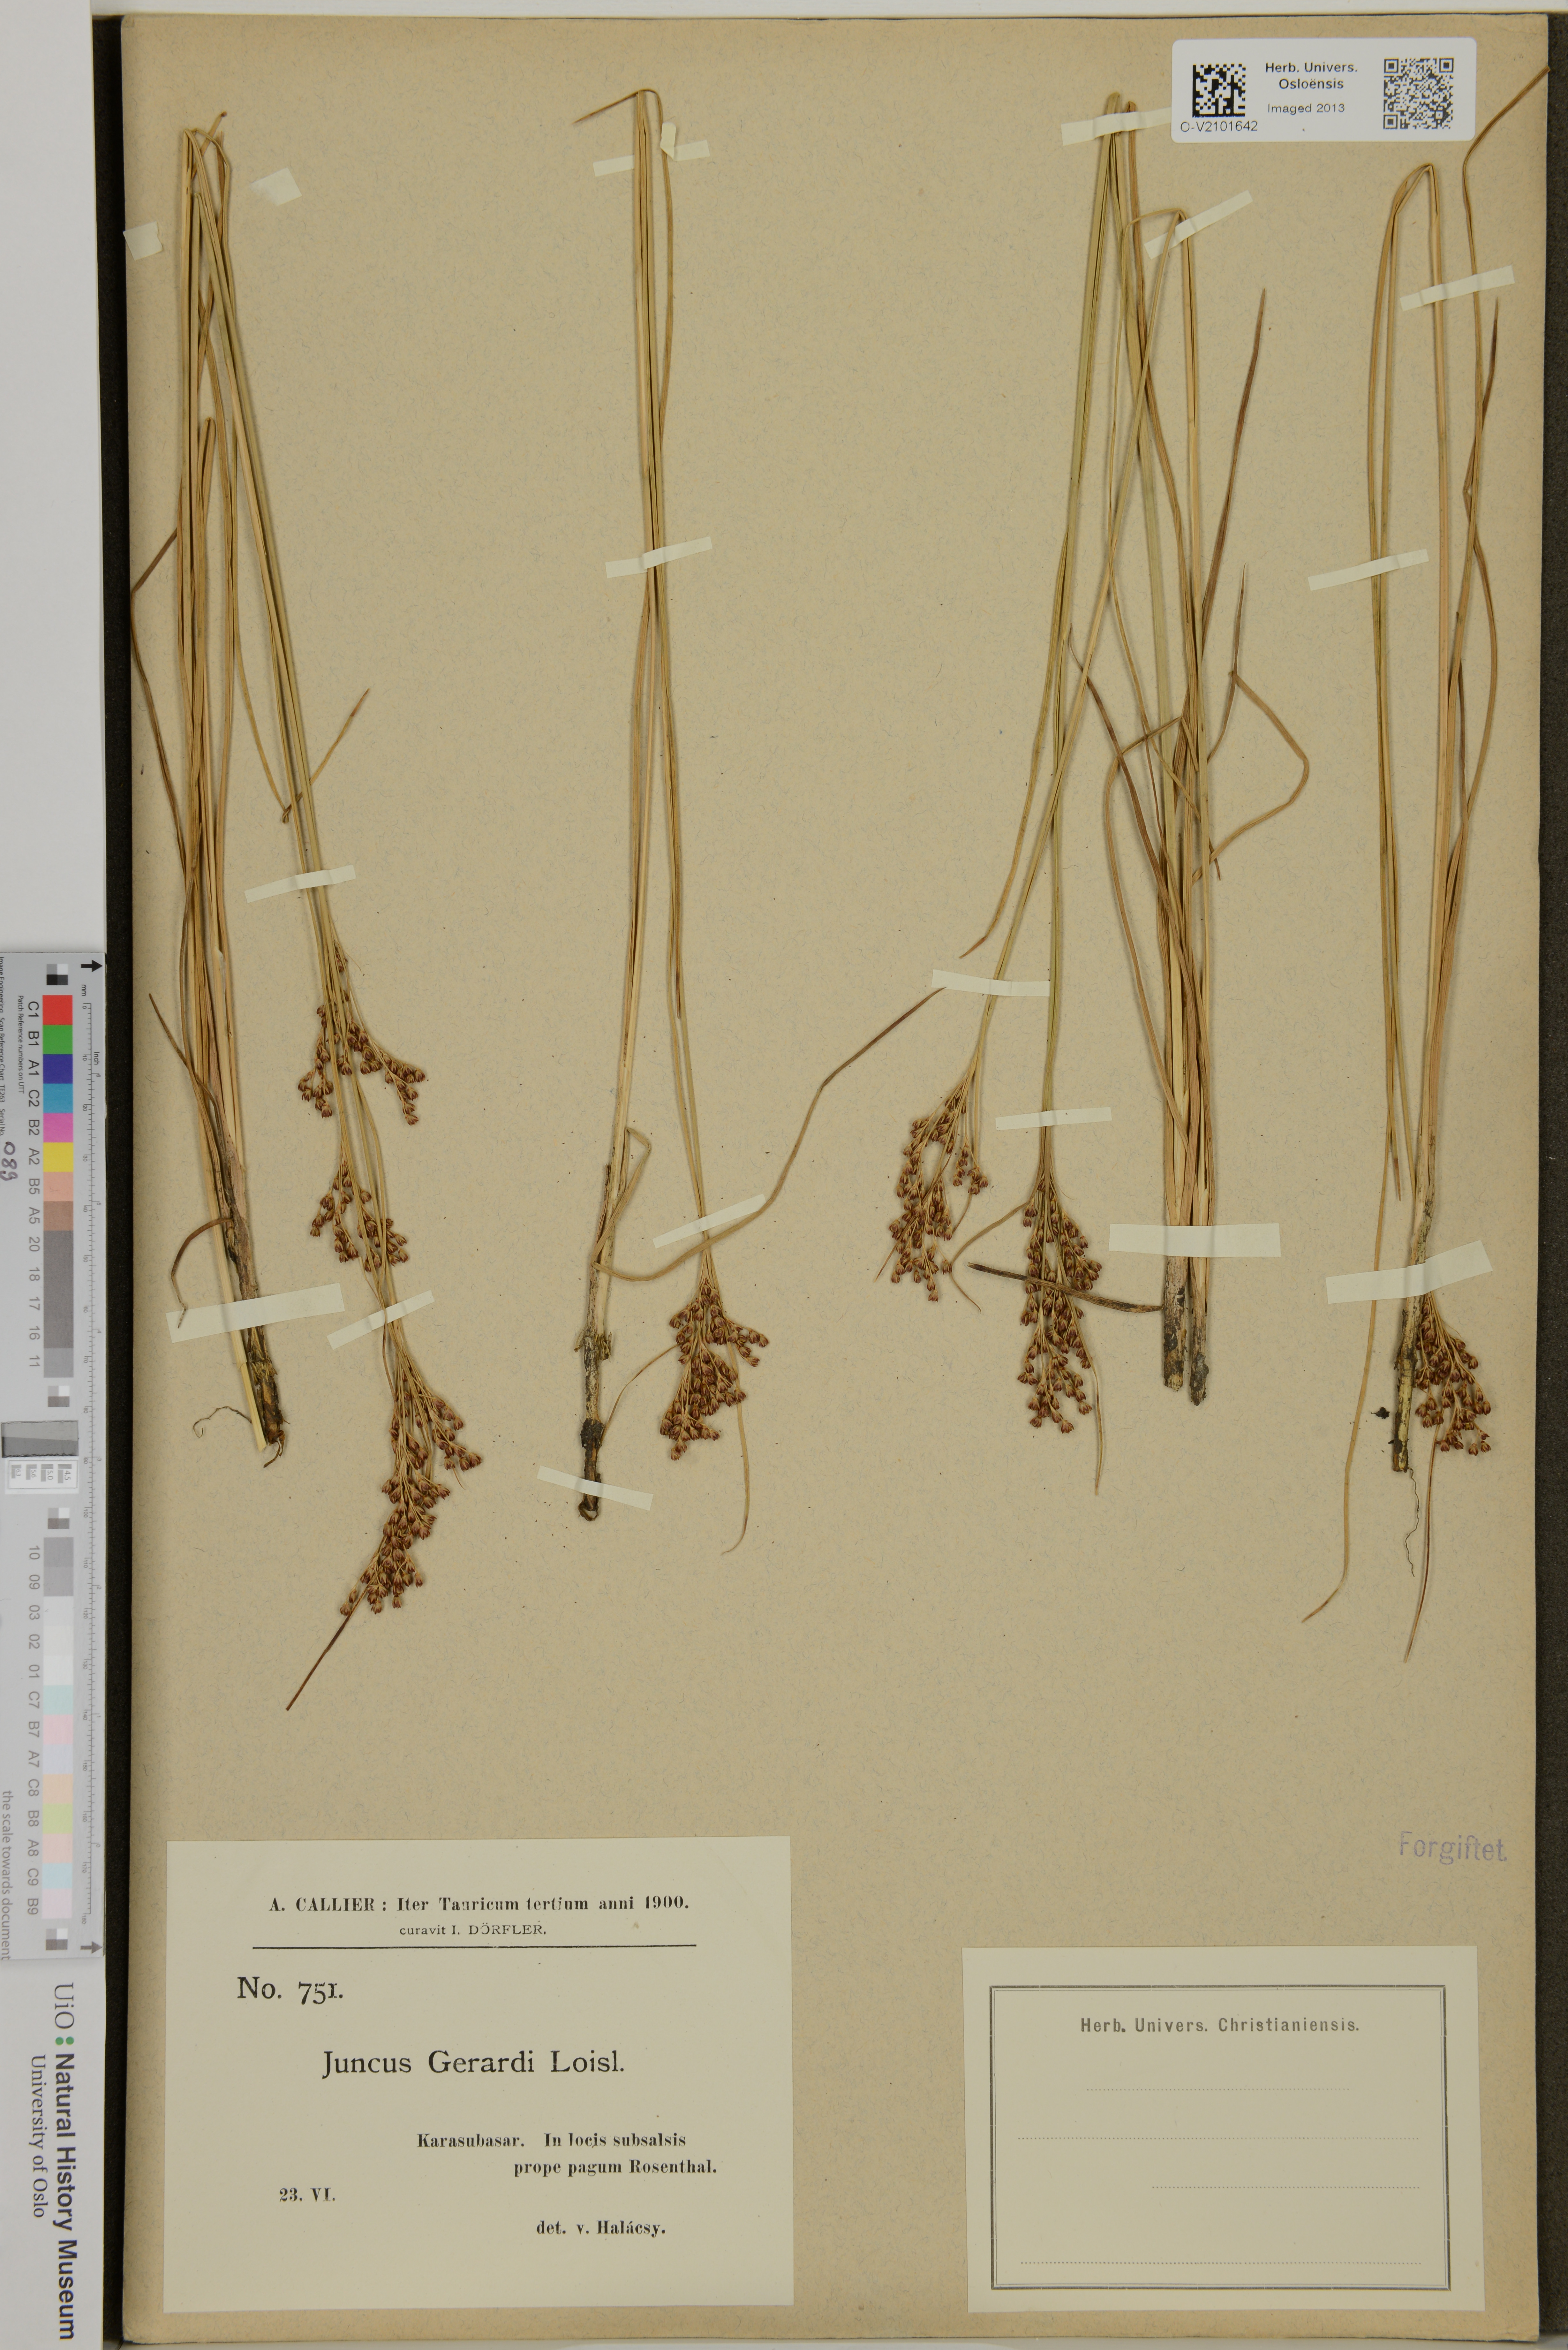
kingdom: Plantae
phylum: Tracheophyta
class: Liliopsida
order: Poales
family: Juncaceae
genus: Juncus
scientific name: Juncus gerardi
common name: Saltmarsh rush
